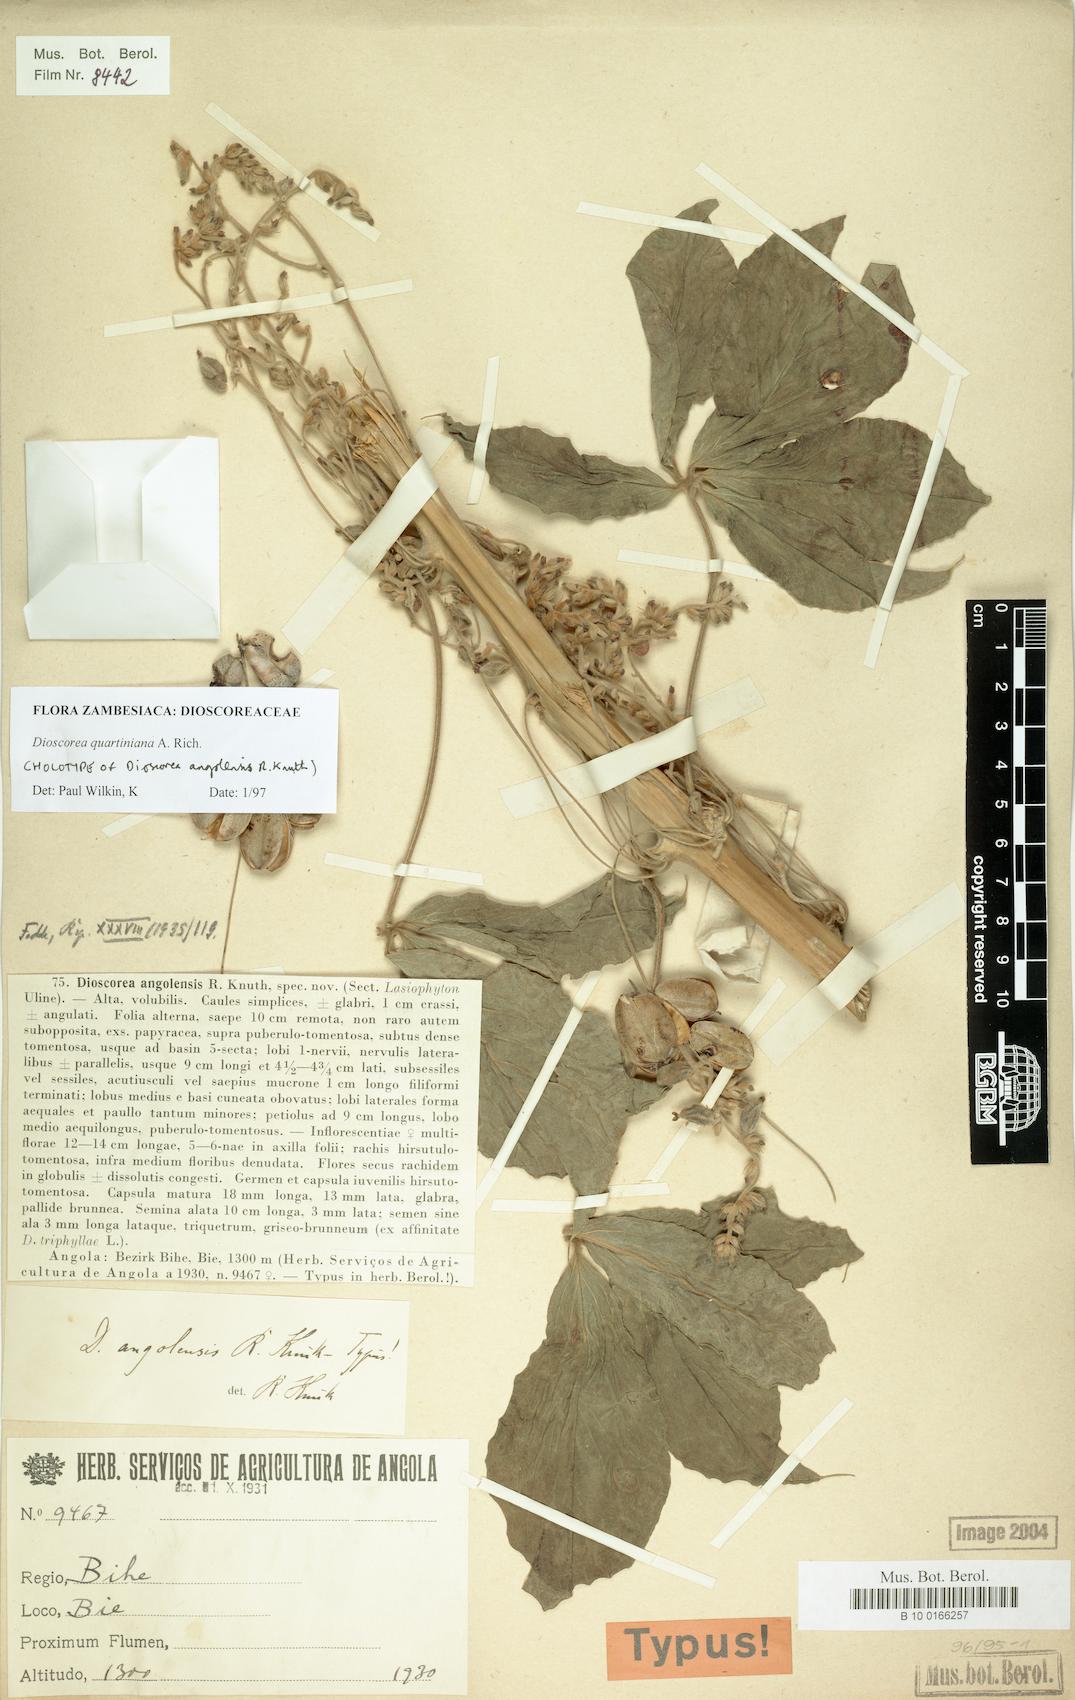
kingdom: Plantae
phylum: Tracheophyta
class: Liliopsida
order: Dioscoreales
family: Dioscoreaceae
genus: Dioscorea
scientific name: Dioscorea quartiniana
